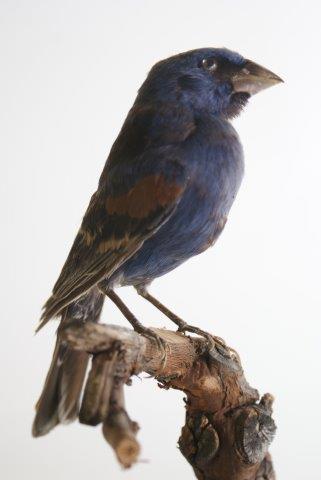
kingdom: Animalia
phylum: Chordata
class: Aves
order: Passeriformes
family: Cardinalidae
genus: Passerina
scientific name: Passerina caerulea
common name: Blauwe bisschop
